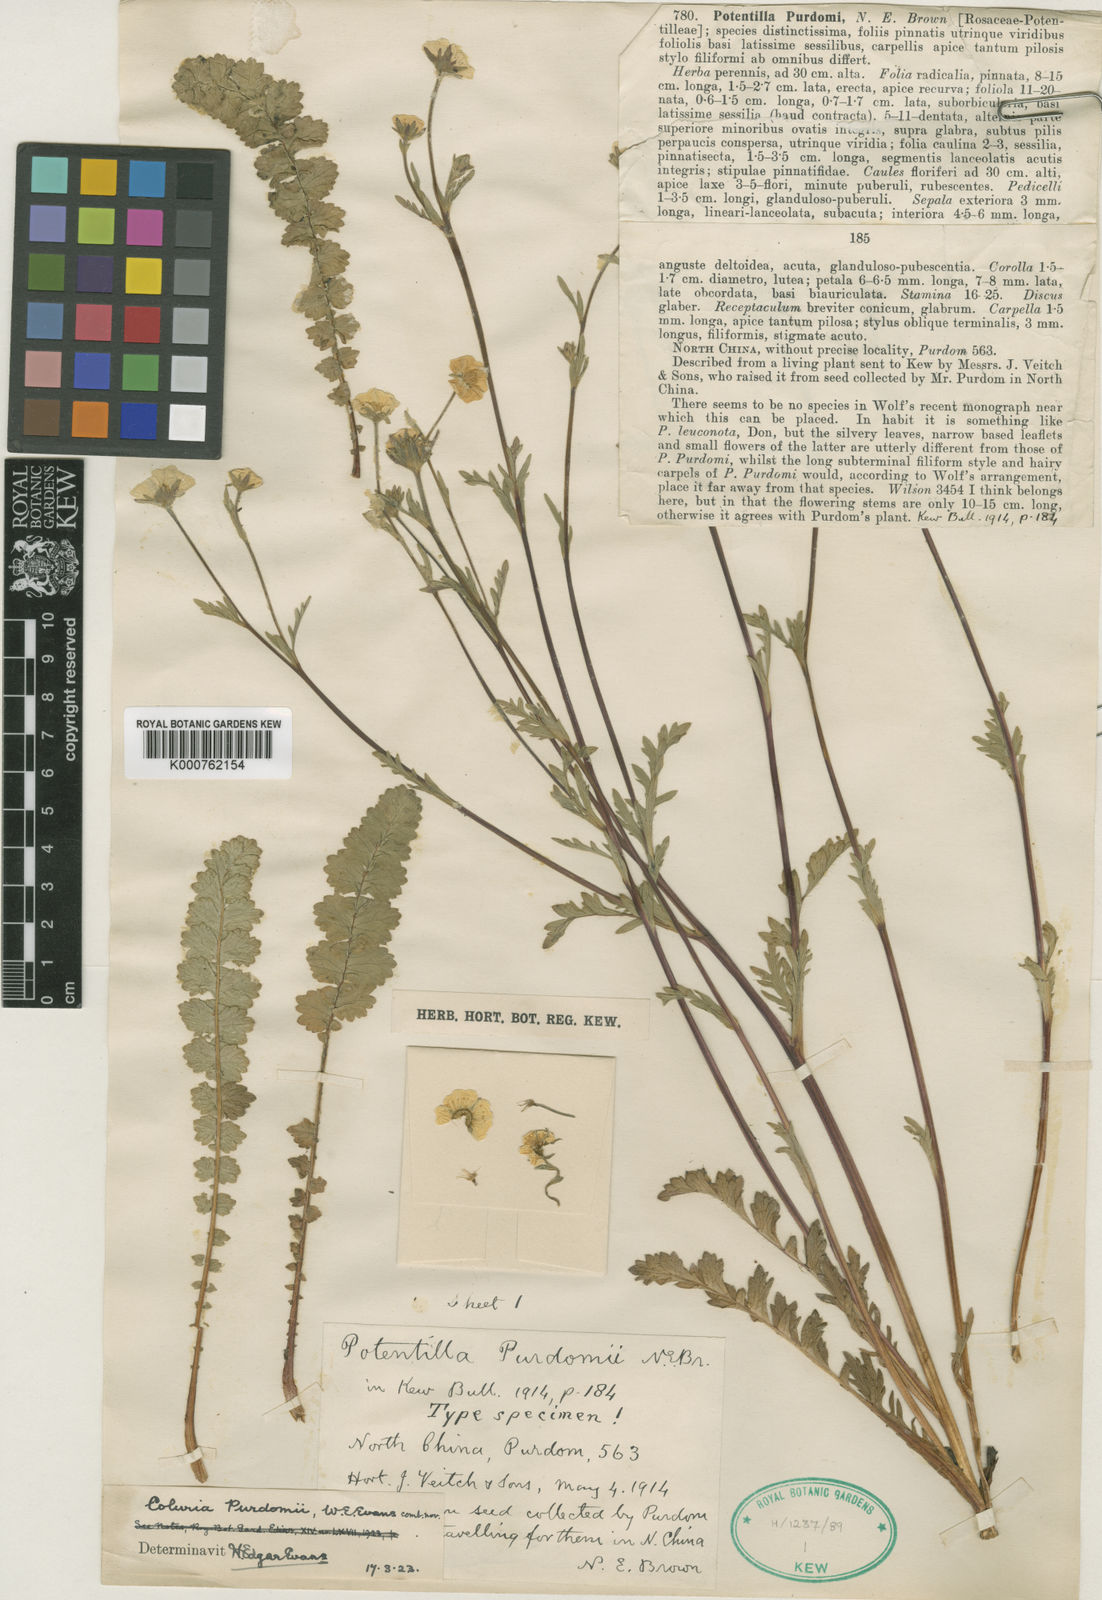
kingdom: Plantae
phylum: Tracheophyta
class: Magnoliopsida
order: Rosales
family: Rosaceae
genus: Geum
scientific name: Geum longifolium
